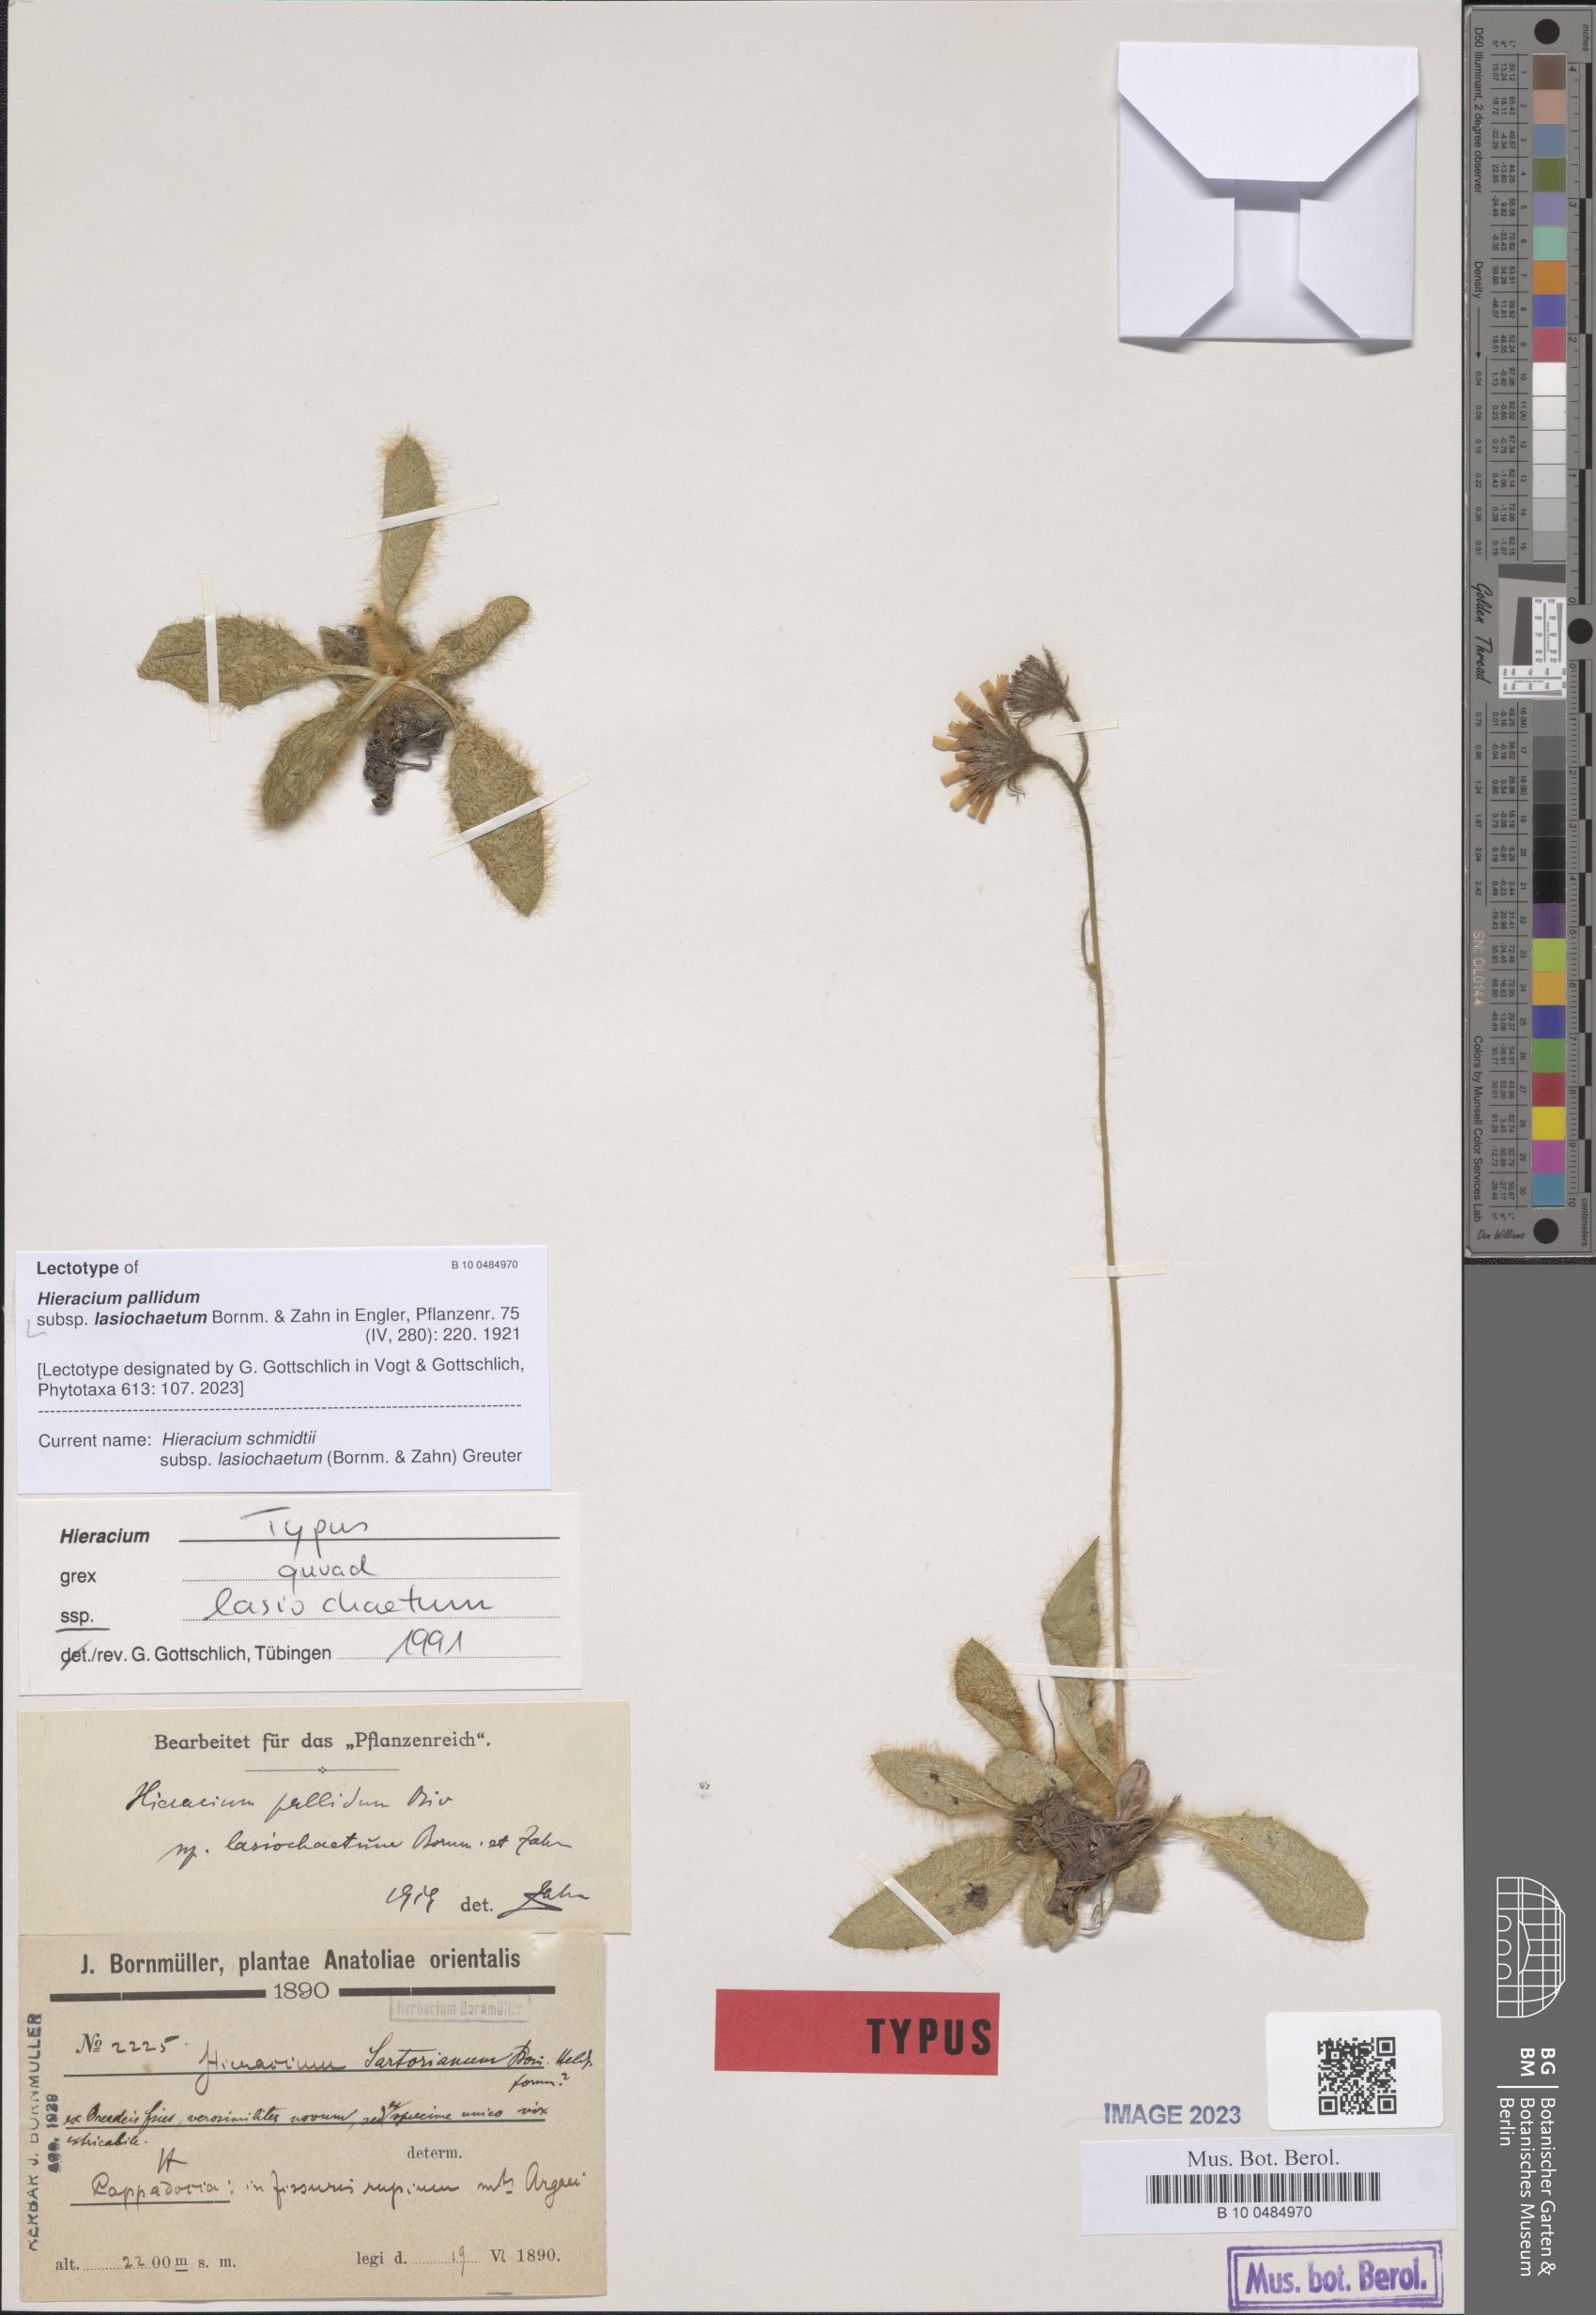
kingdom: Plantae
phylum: Tracheophyta
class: Magnoliopsida
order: Asterales
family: Asteraceae
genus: Hieracium
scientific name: Hieracium schmidtii
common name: Schmidt's hawkweed
